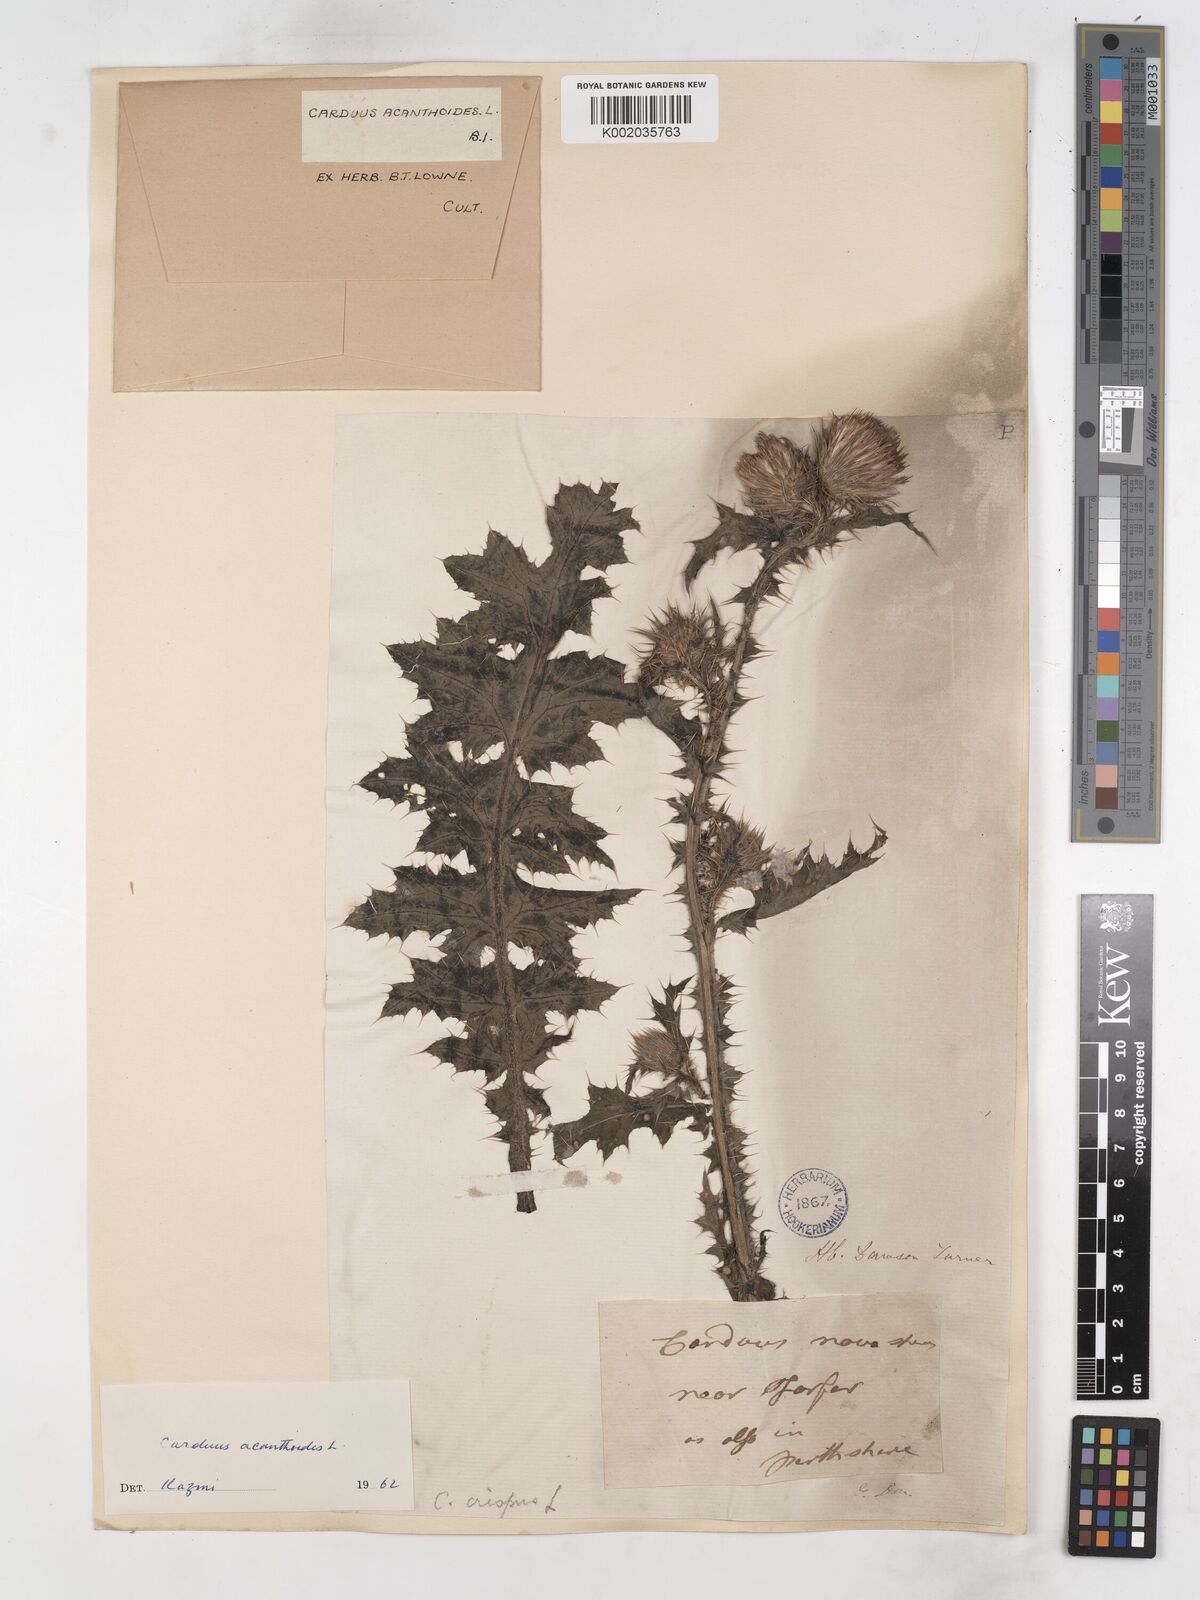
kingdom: Plantae
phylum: Tracheophyta
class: Magnoliopsida
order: Asterales
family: Asteraceae
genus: Carduus
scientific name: Carduus acanthoides
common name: Plumeless thistle
